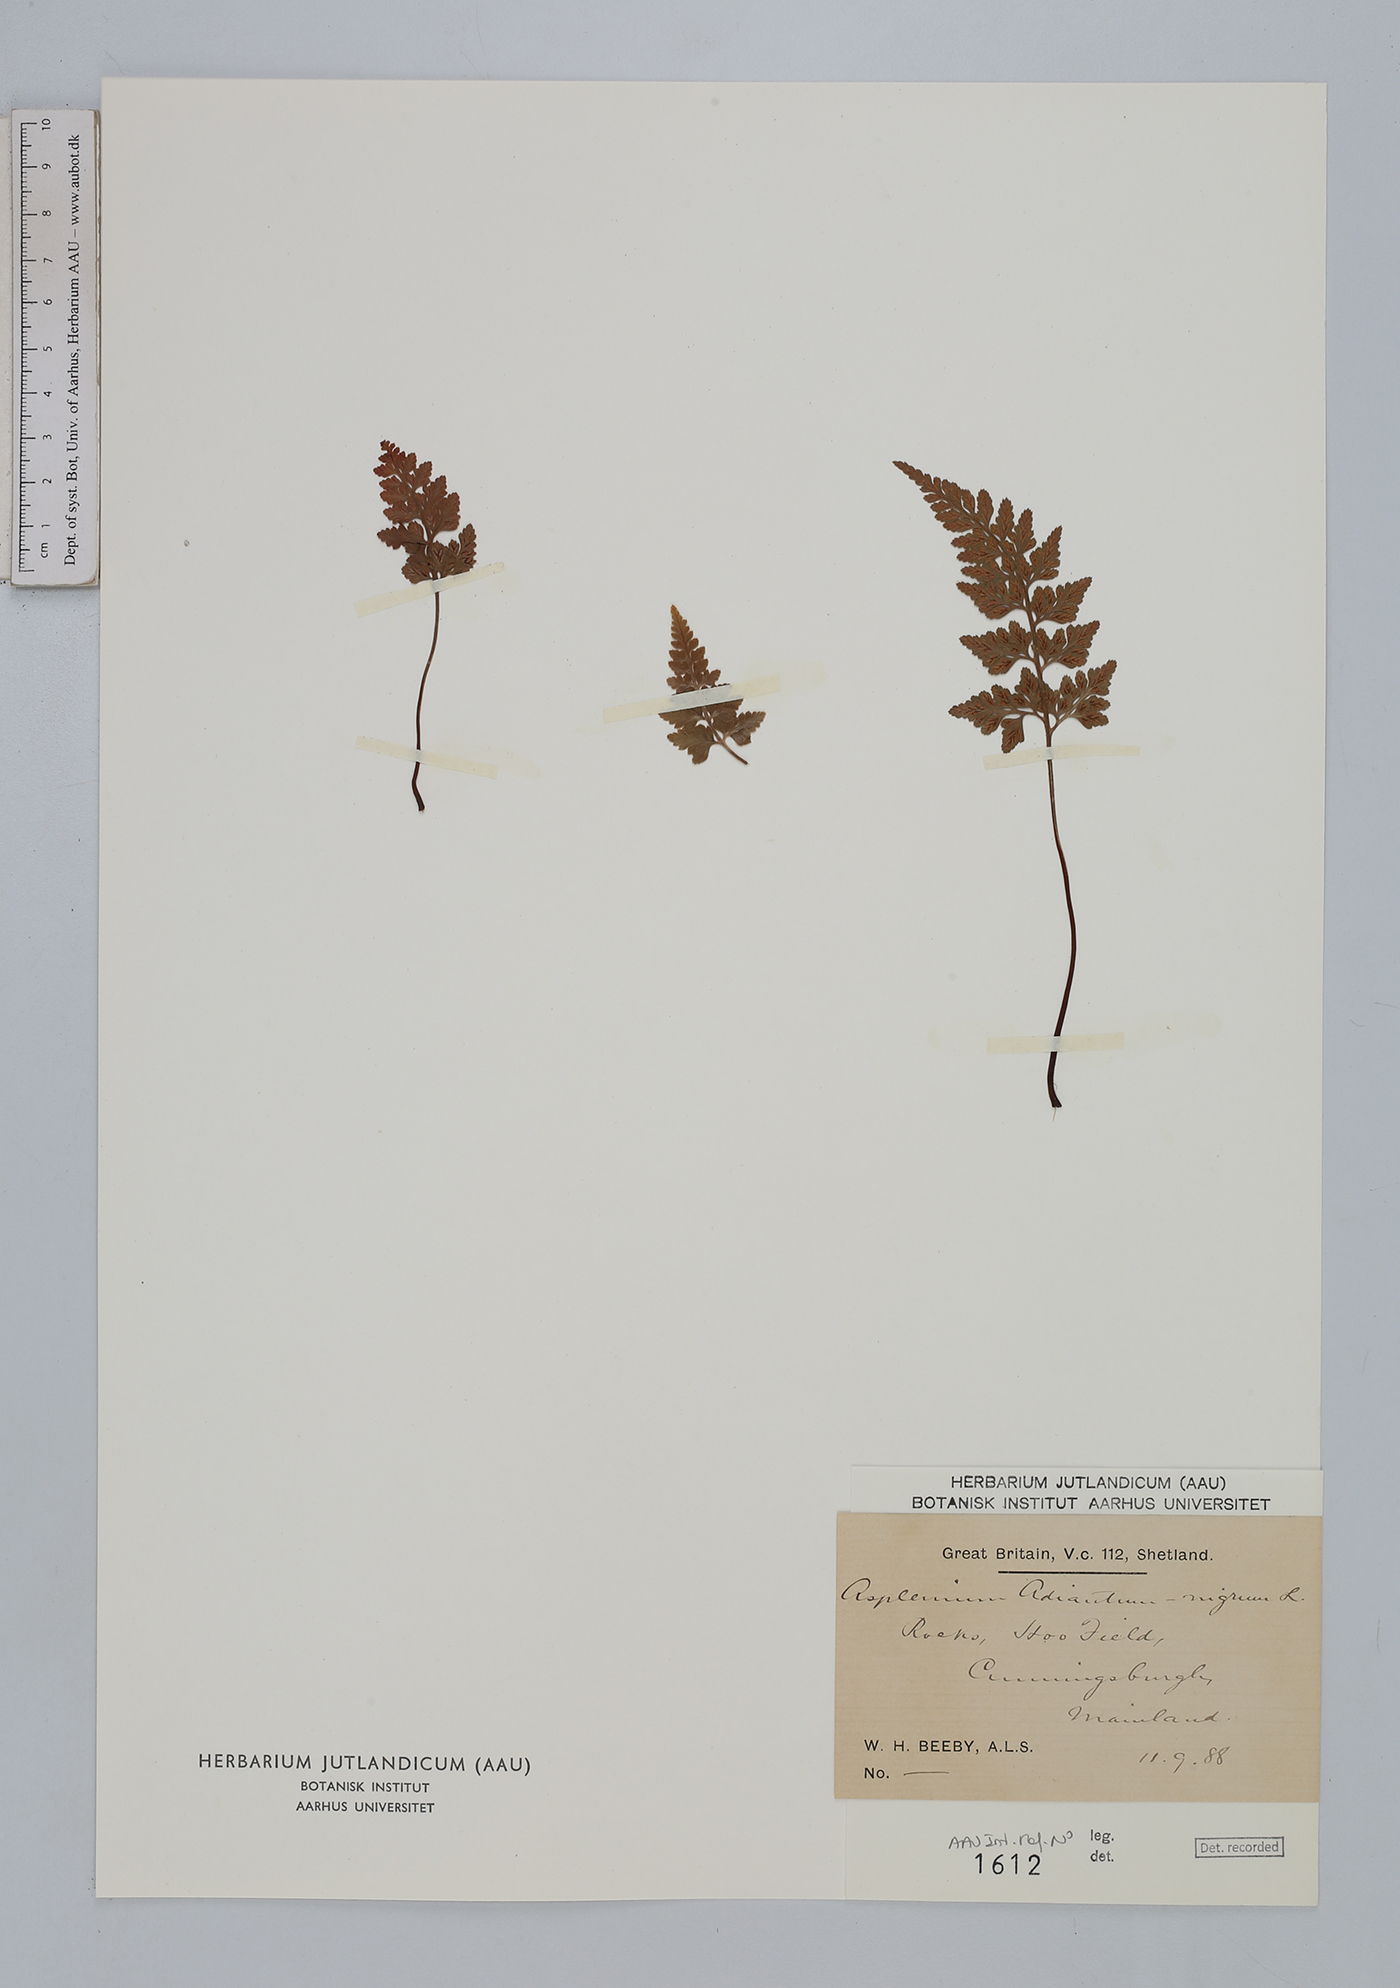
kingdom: Plantae
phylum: Tracheophyta
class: Polypodiopsida
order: Polypodiales
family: Aspleniaceae
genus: Asplenium
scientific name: Asplenium adiantum-nigrum
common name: Black spleenwort
